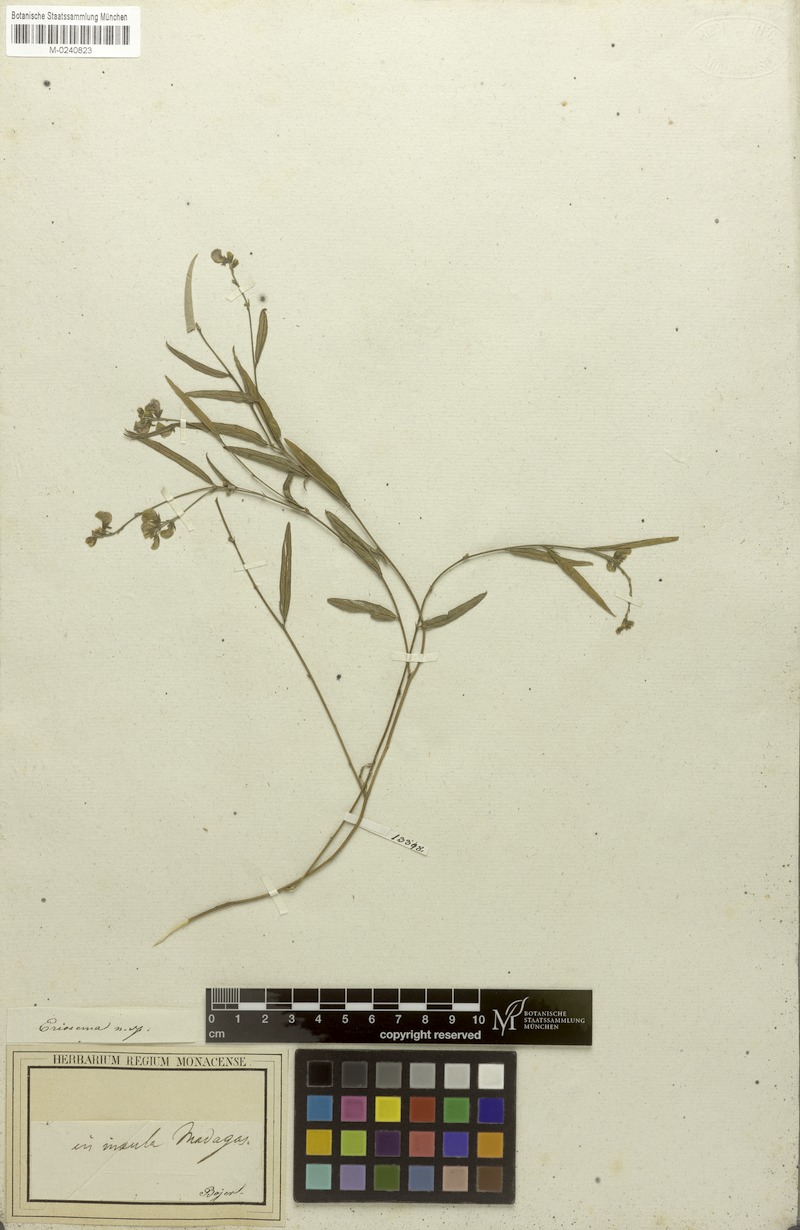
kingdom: Plantae
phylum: Tracheophyta
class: Magnoliopsida
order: Fabales
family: Fabaceae
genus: Eriosema
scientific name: Eriosema
